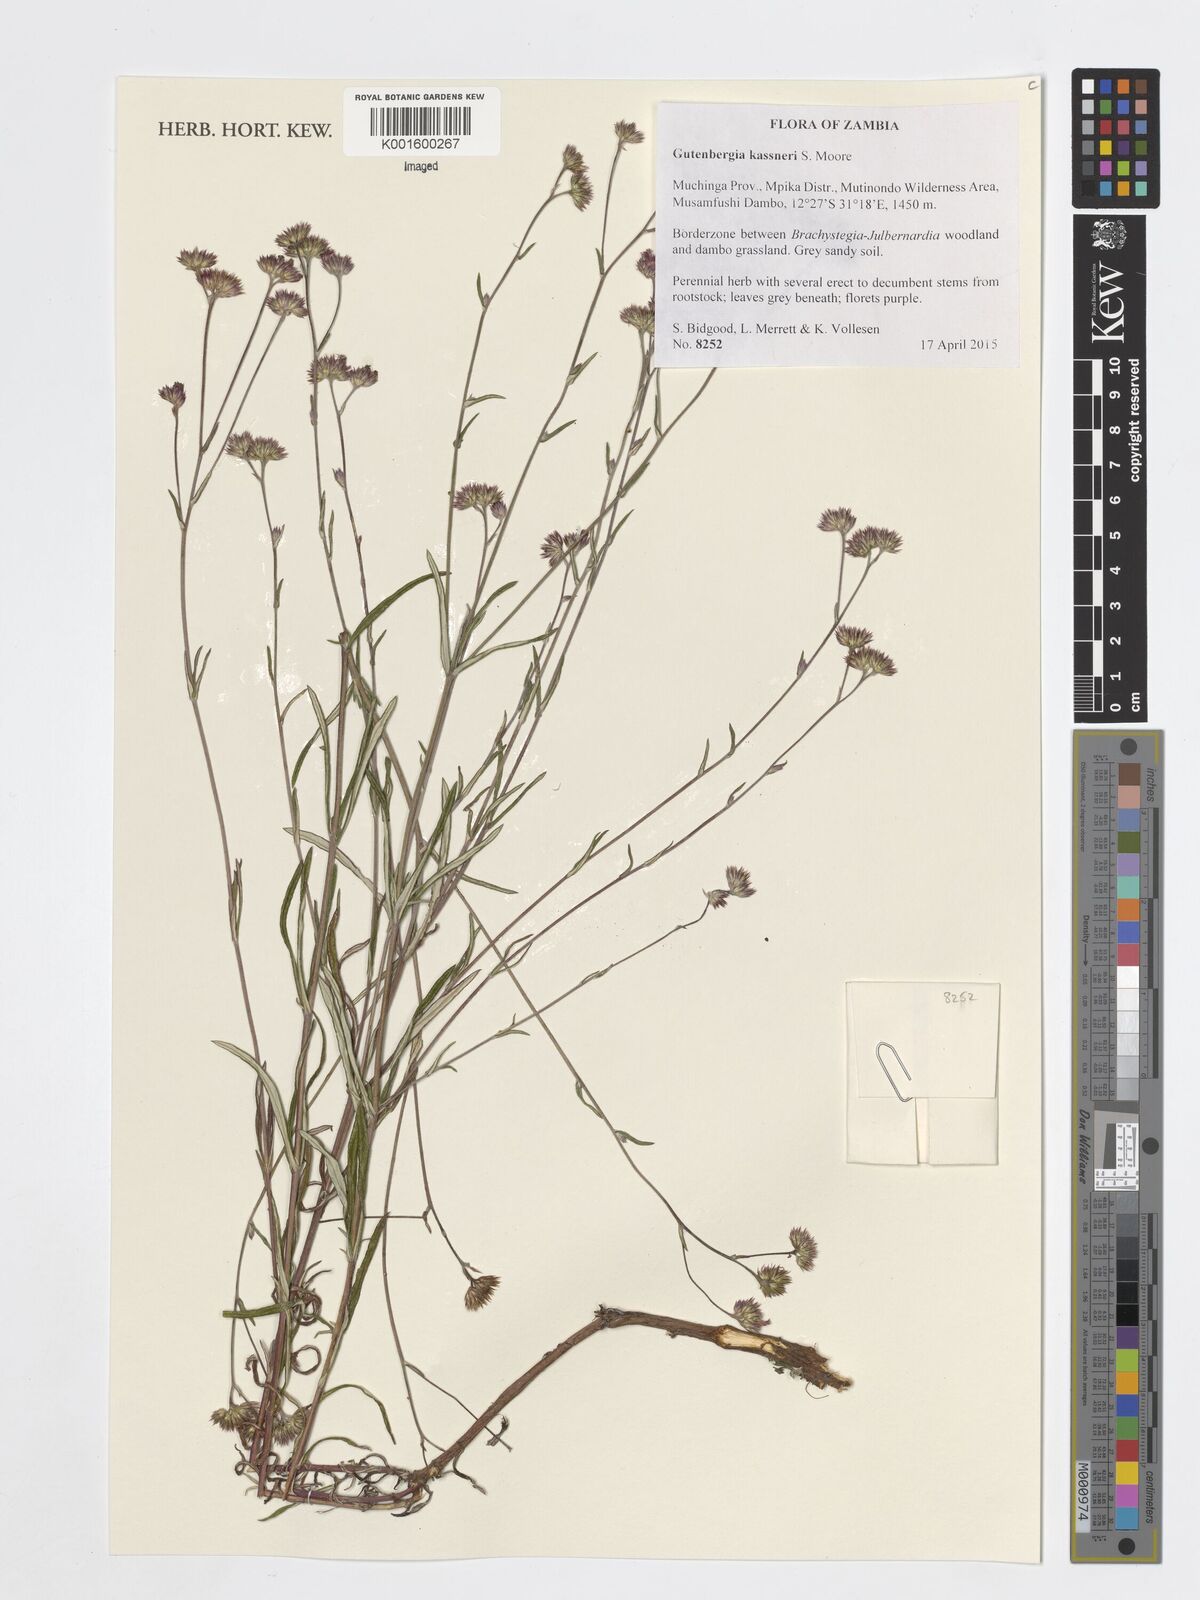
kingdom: Plantae
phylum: Tracheophyta
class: Magnoliopsida
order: Asterales
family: Asteraceae
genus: Gutenbergia
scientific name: Gutenbergia kassneri
